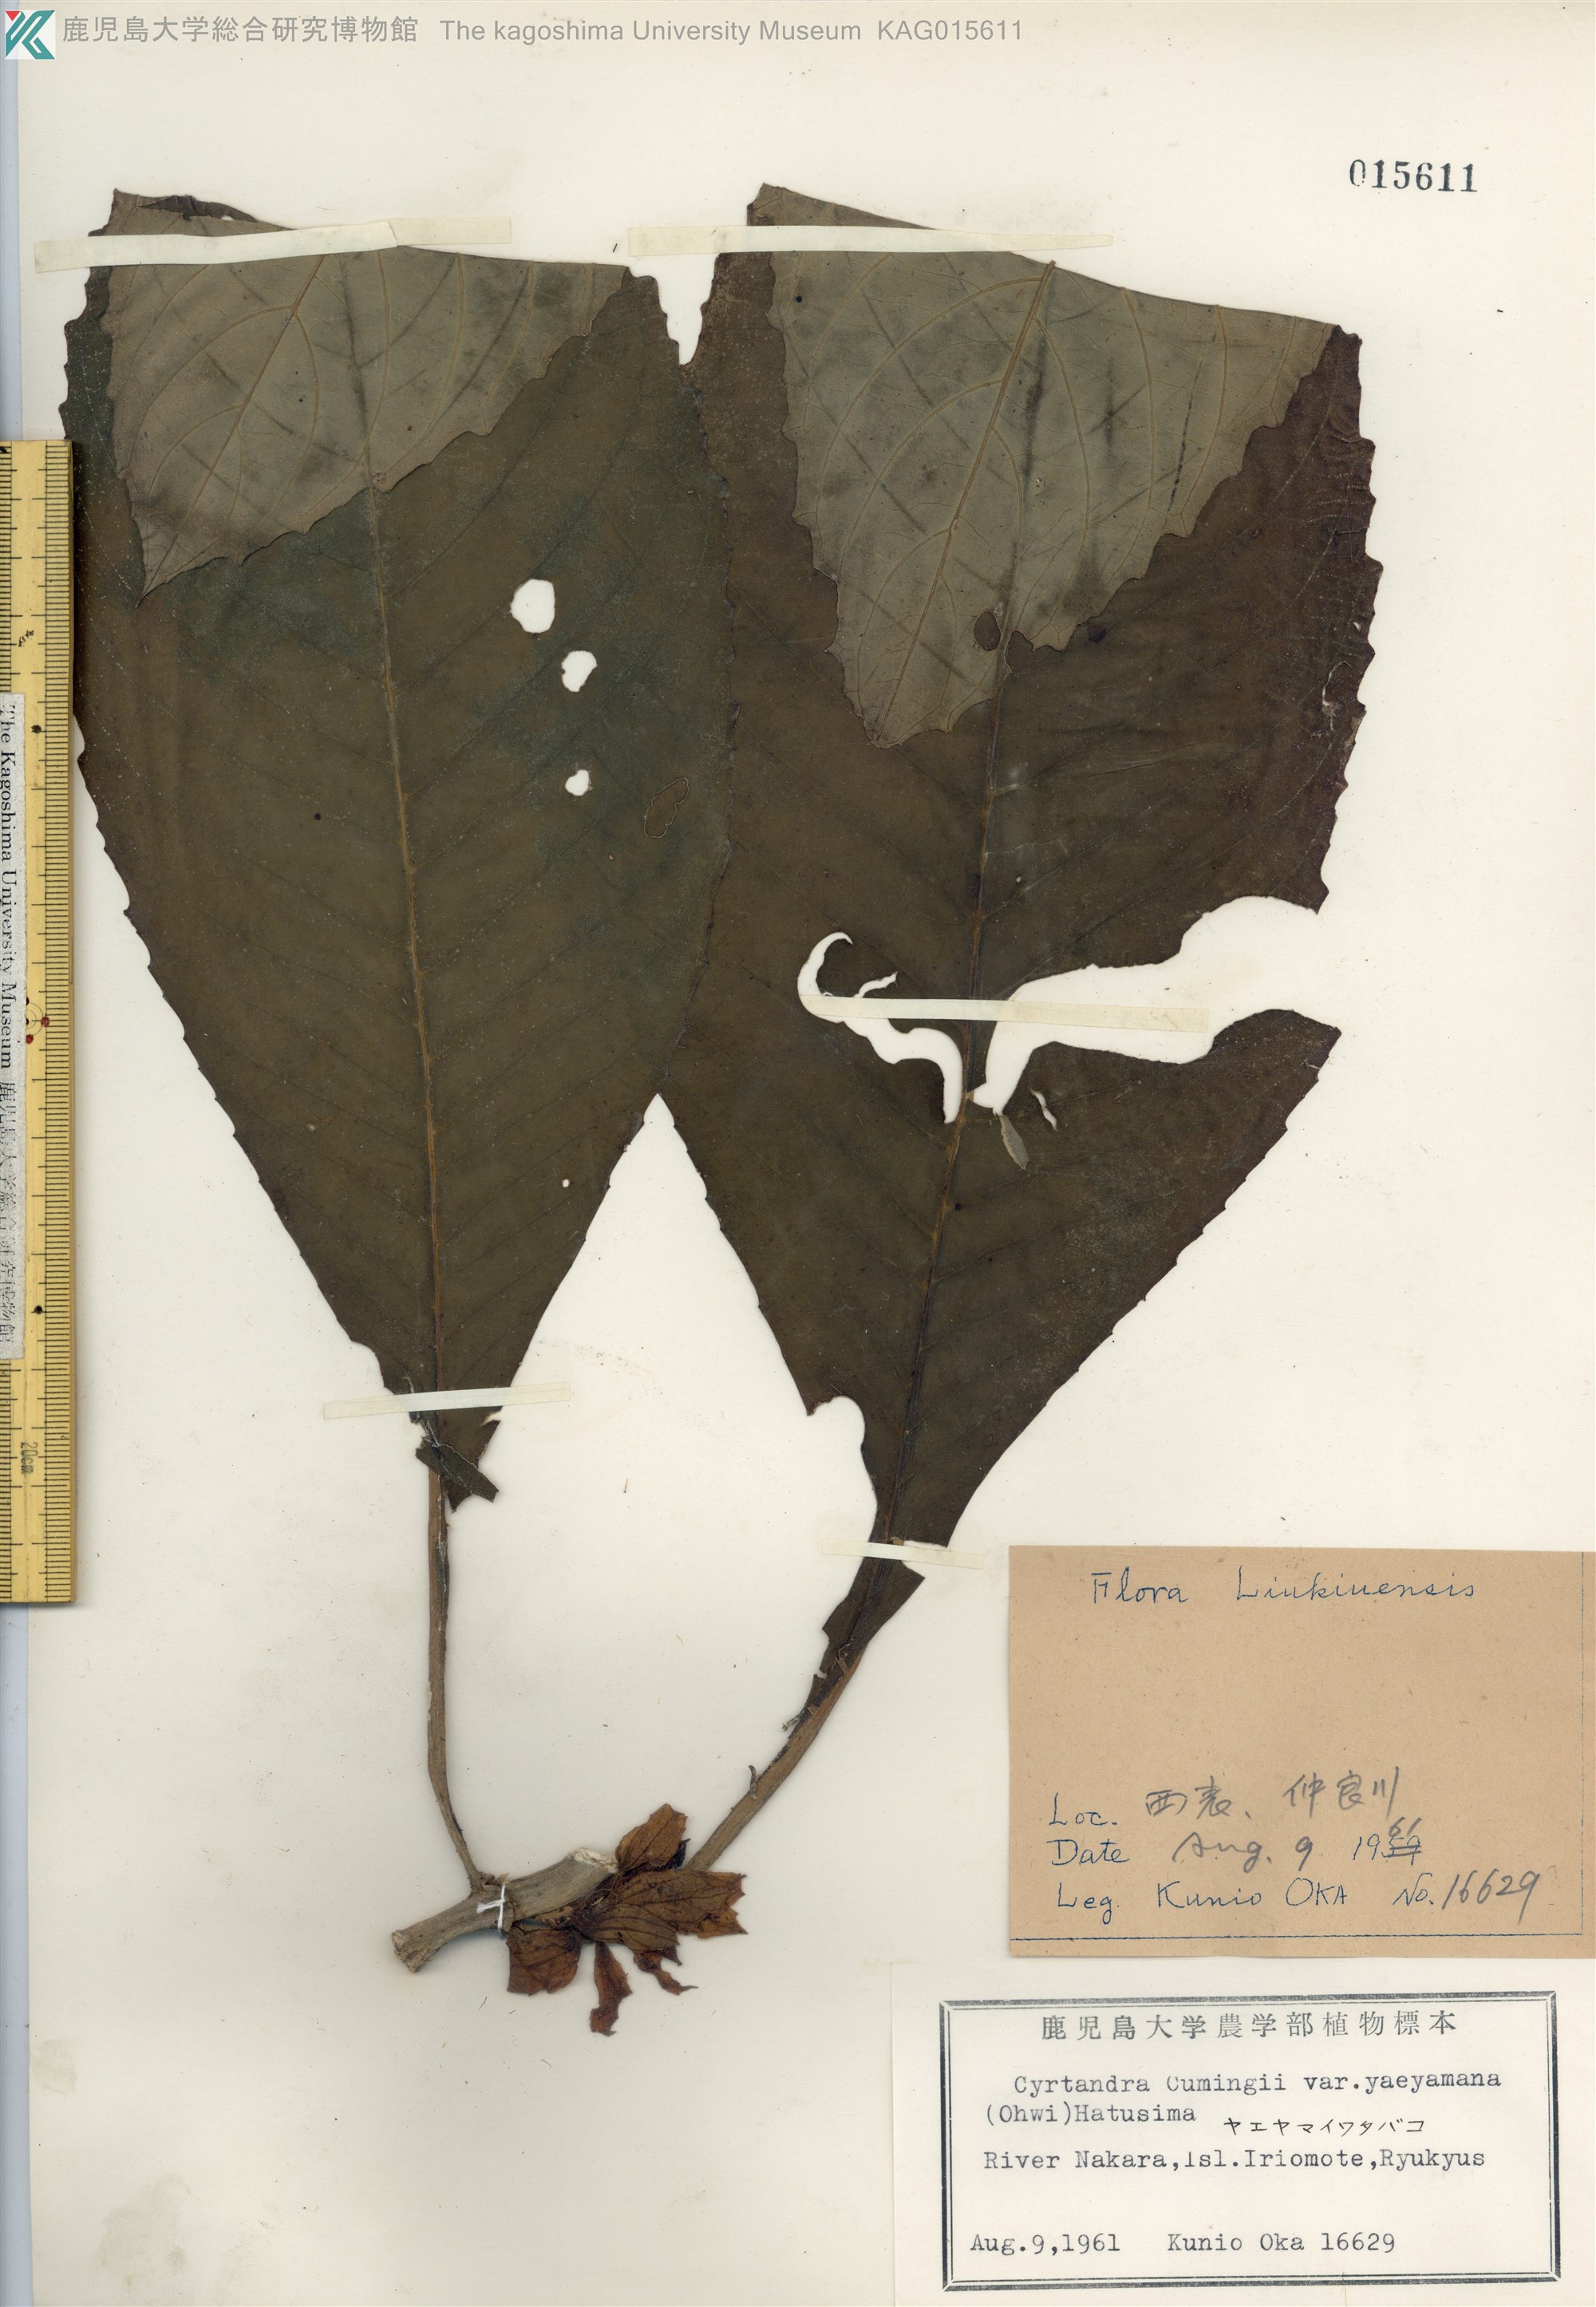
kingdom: Plantae
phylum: Tracheophyta
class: Magnoliopsida
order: Lamiales
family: Gesneriaceae
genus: Cyrtandra
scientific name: Cyrtandra yaeyamae
